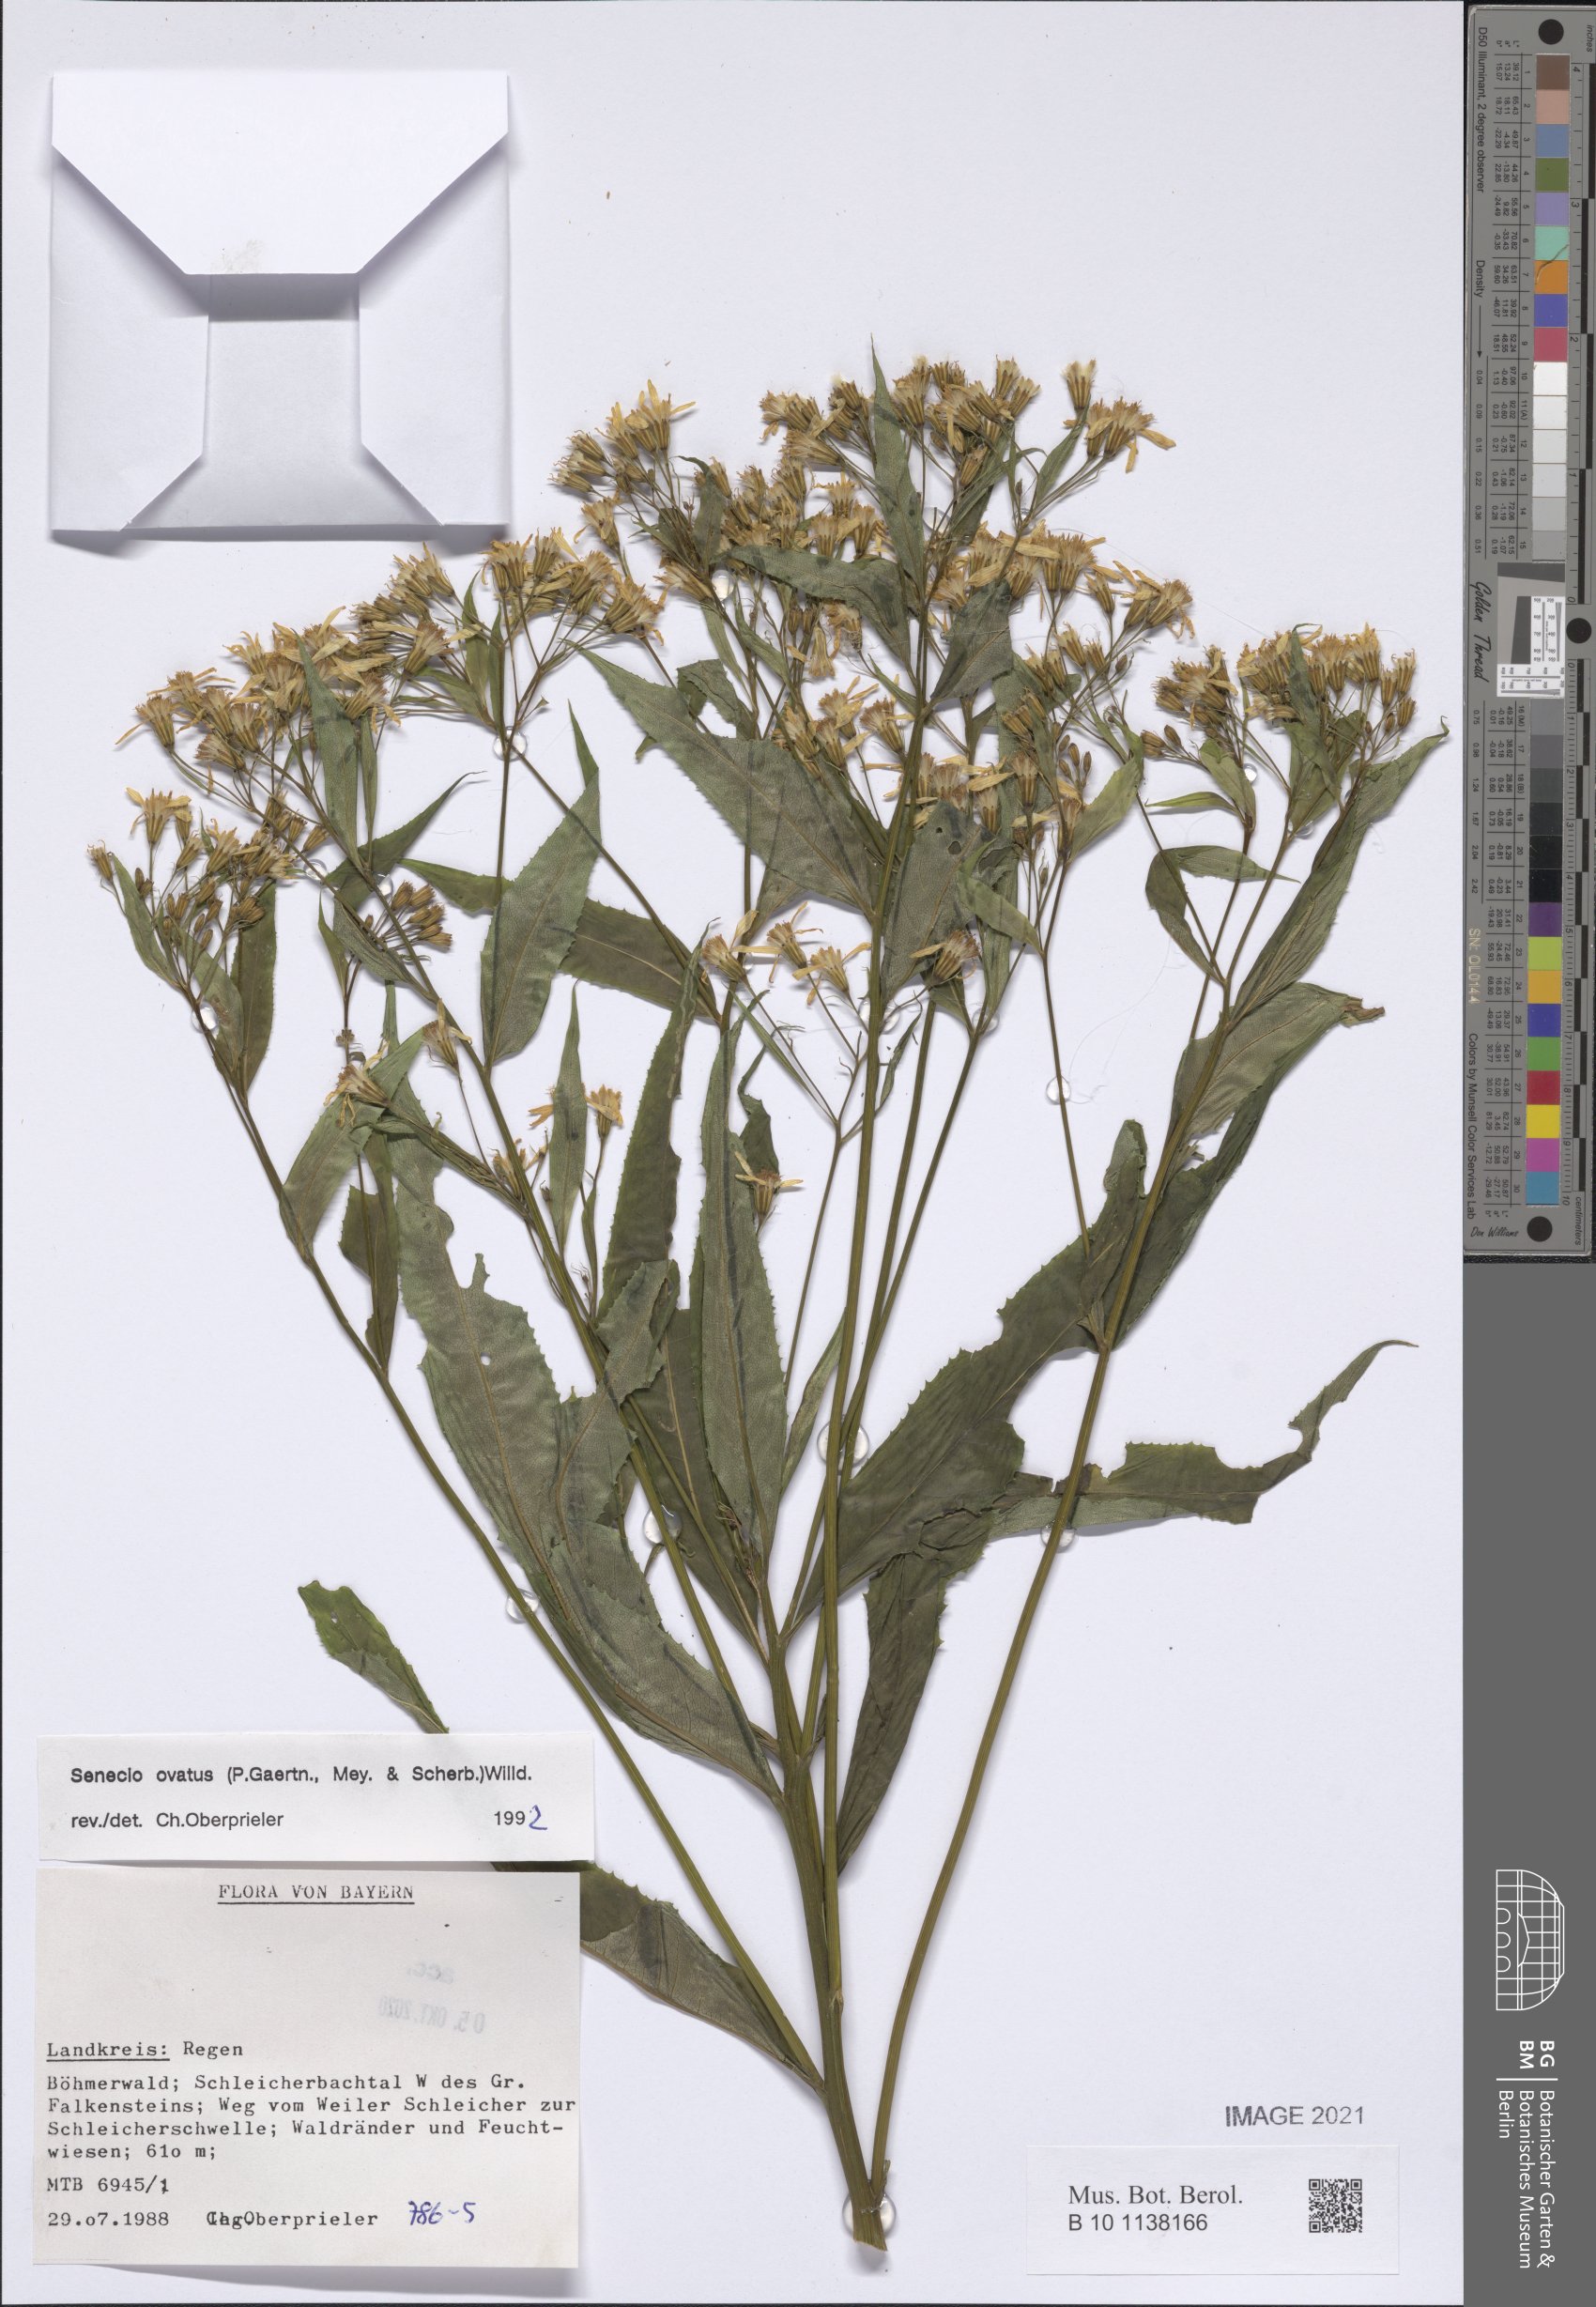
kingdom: Plantae
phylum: Tracheophyta
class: Magnoliopsida
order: Asterales
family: Asteraceae
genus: Senecio
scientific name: Senecio ovatus
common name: Wood ragwort
